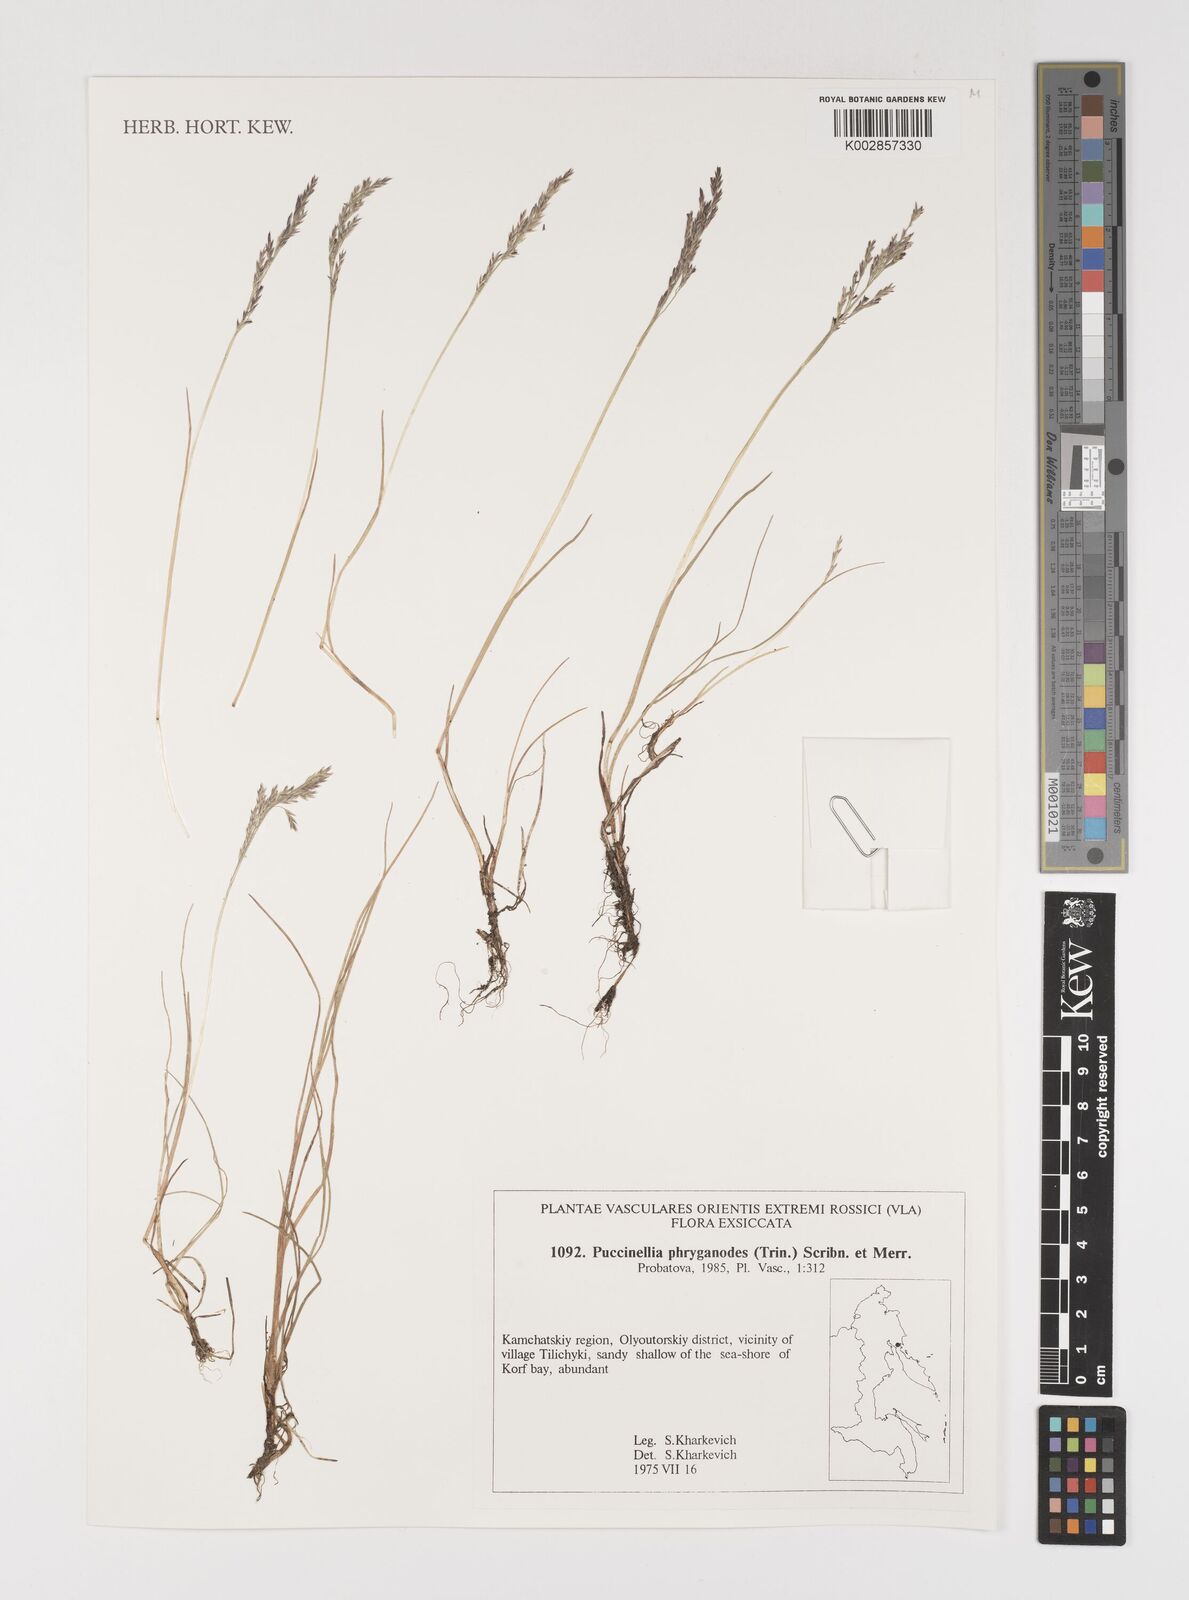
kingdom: Plantae
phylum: Tracheophyta
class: Liliopsida
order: Poales
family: Poaceae
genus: Puccinellia
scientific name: Puccinellia phryganodes
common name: Creeping alkaligrass
